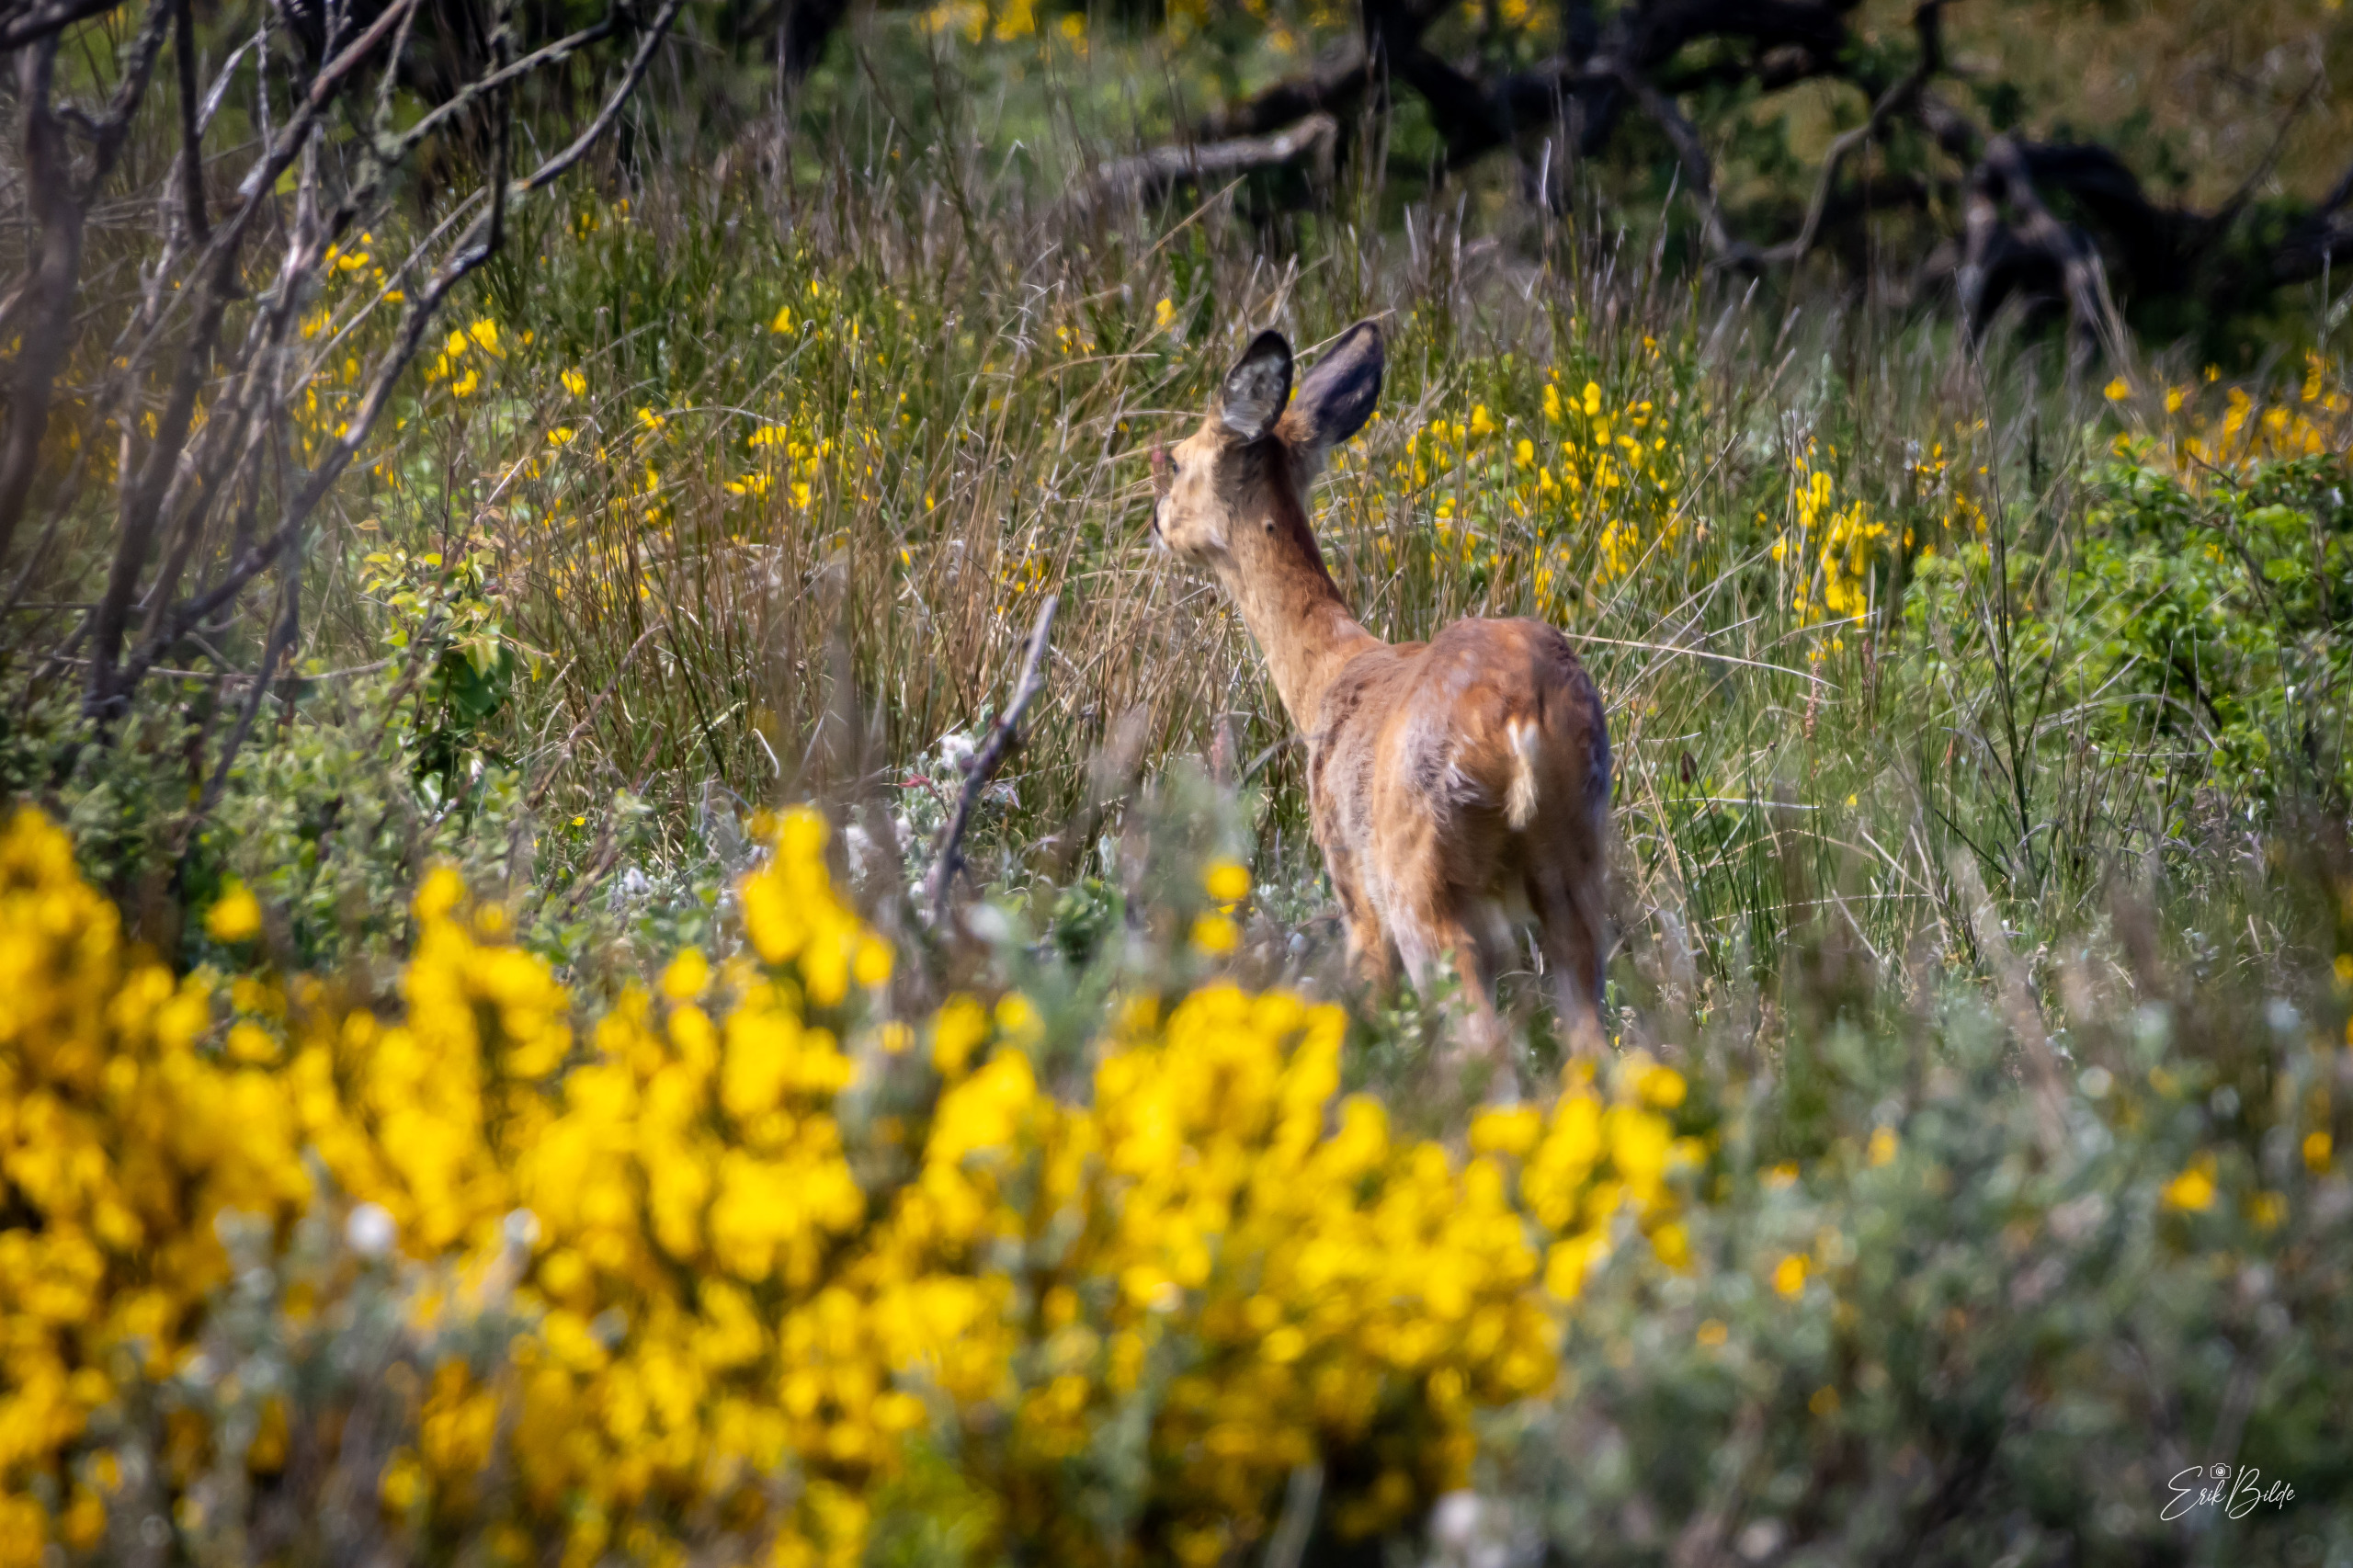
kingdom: Animalia
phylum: Chordata
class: Mammalia
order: Artiodactyla
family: Cervidae
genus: Capreolus
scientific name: Capreolus capreolus
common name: Rådyr
